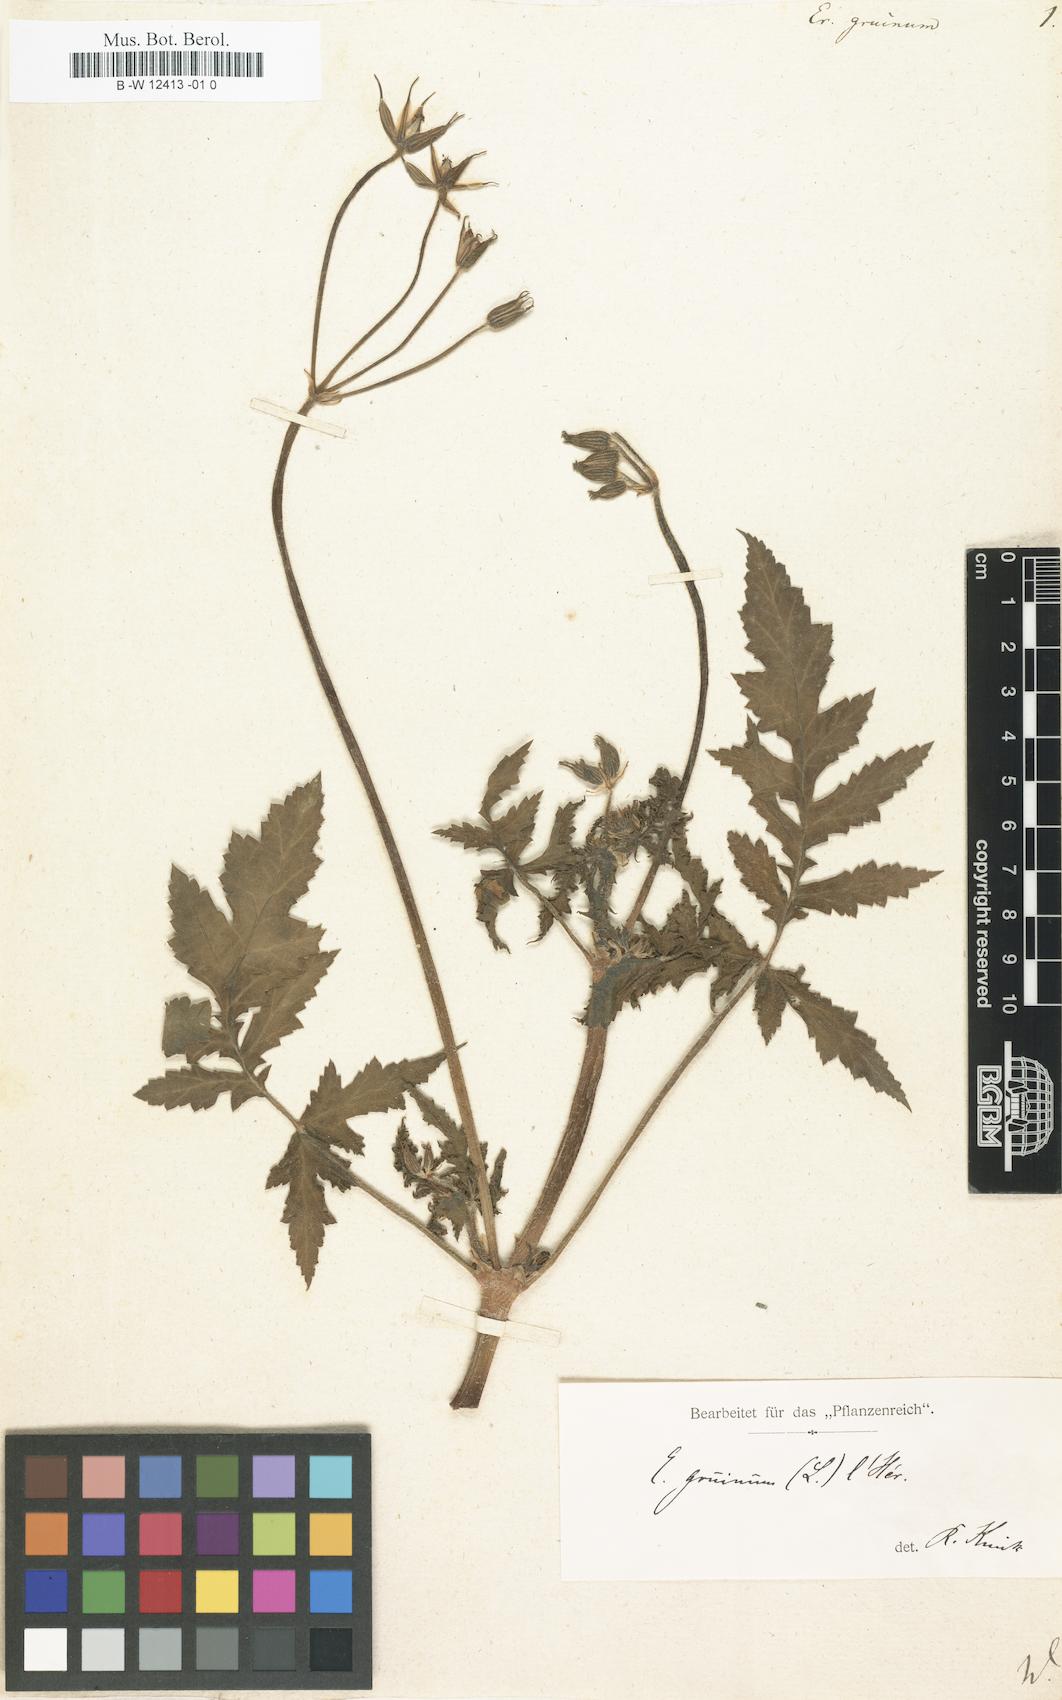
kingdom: Plantae
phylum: Tracheophyta
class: Magnoliopsida
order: Geraniales
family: Geraniaceae
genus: Erodium
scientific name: Erodium gruinum
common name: Iranian stork's bill
